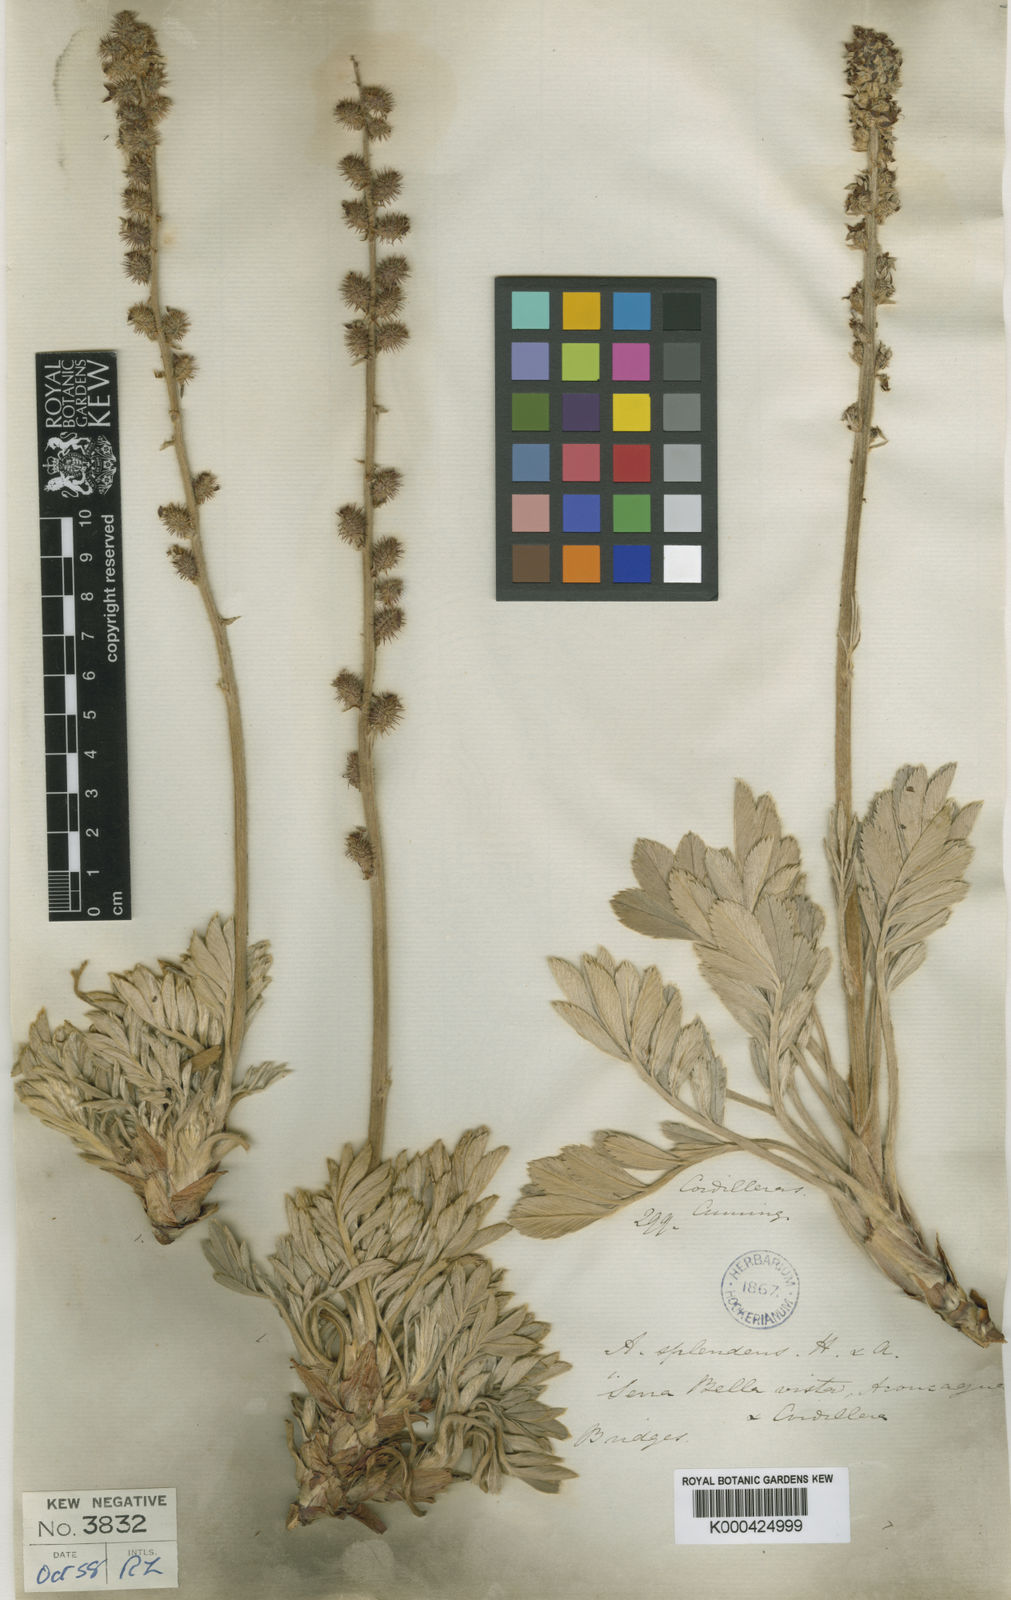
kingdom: Plantae
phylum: Tracheophyta
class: Magnoliopsida
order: Rosales
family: Rosaceae
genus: Acaena
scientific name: Acaena splendens
